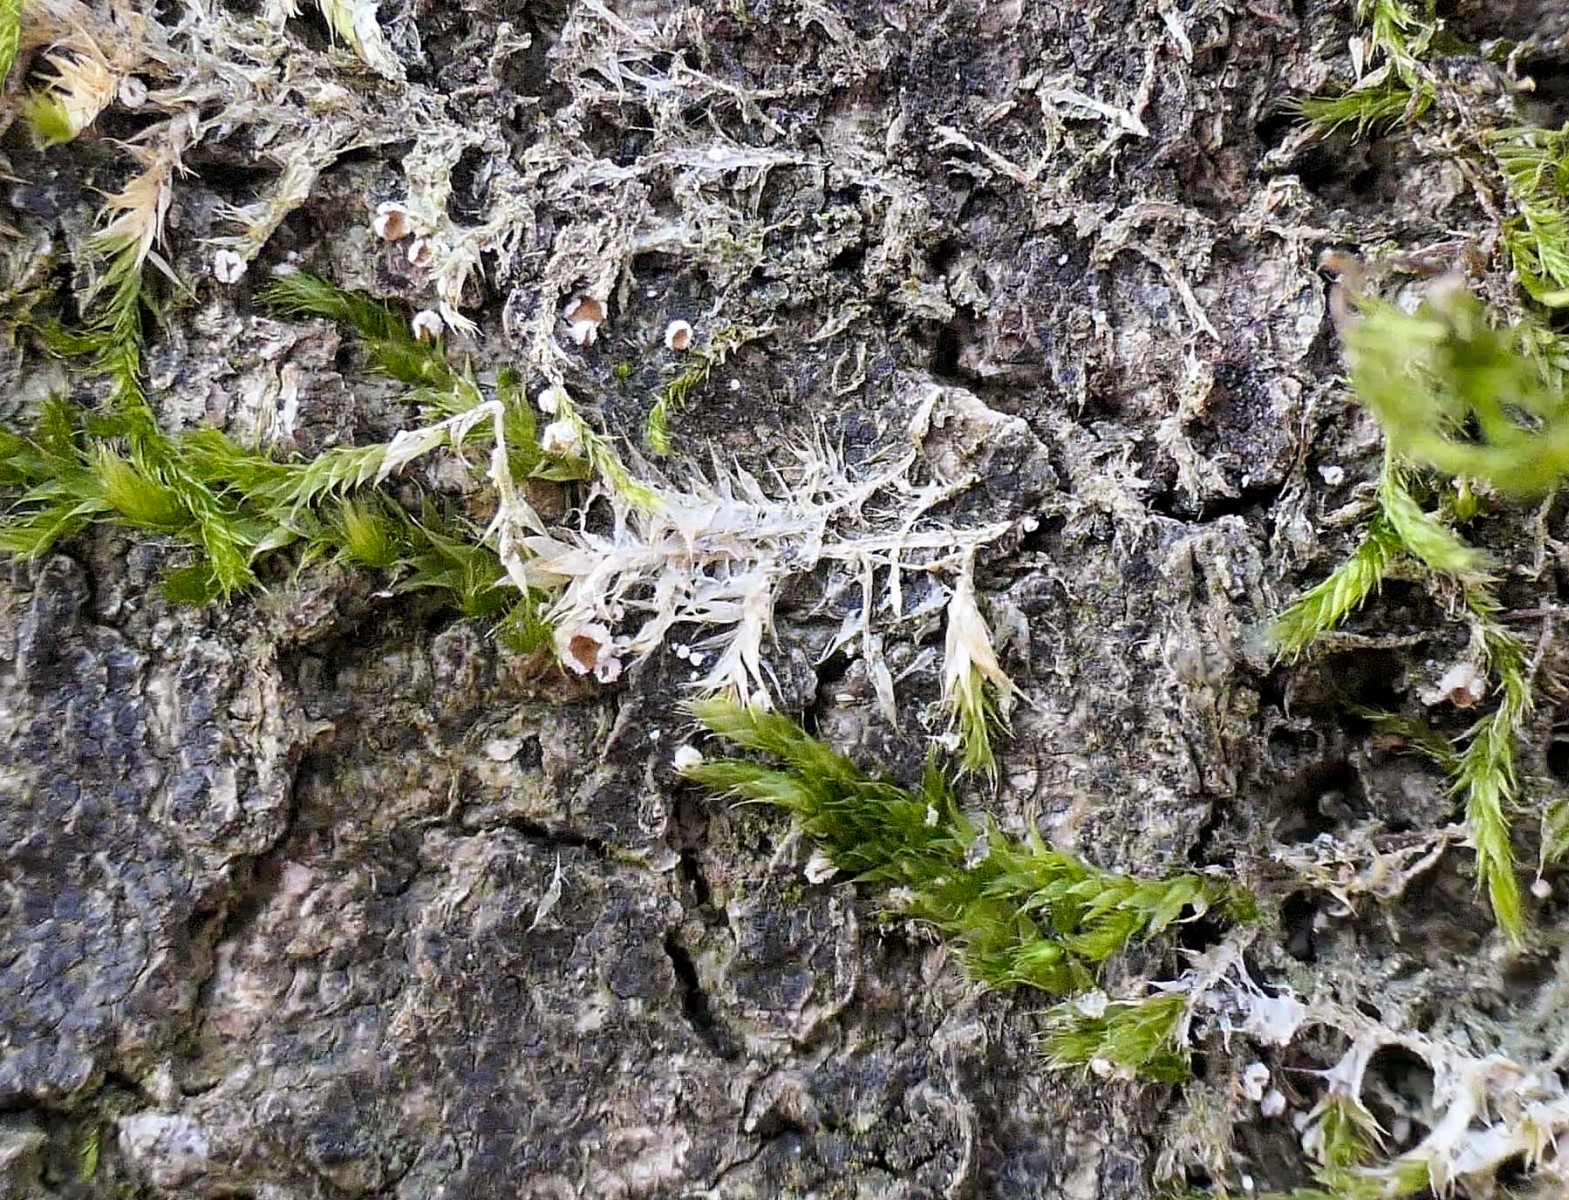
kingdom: Fungi
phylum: Basidiomycota
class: Agaricomycetes
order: Agaricales
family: Chromocyphellaceae
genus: Chromocyphella
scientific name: Chromocyphella muscicola
